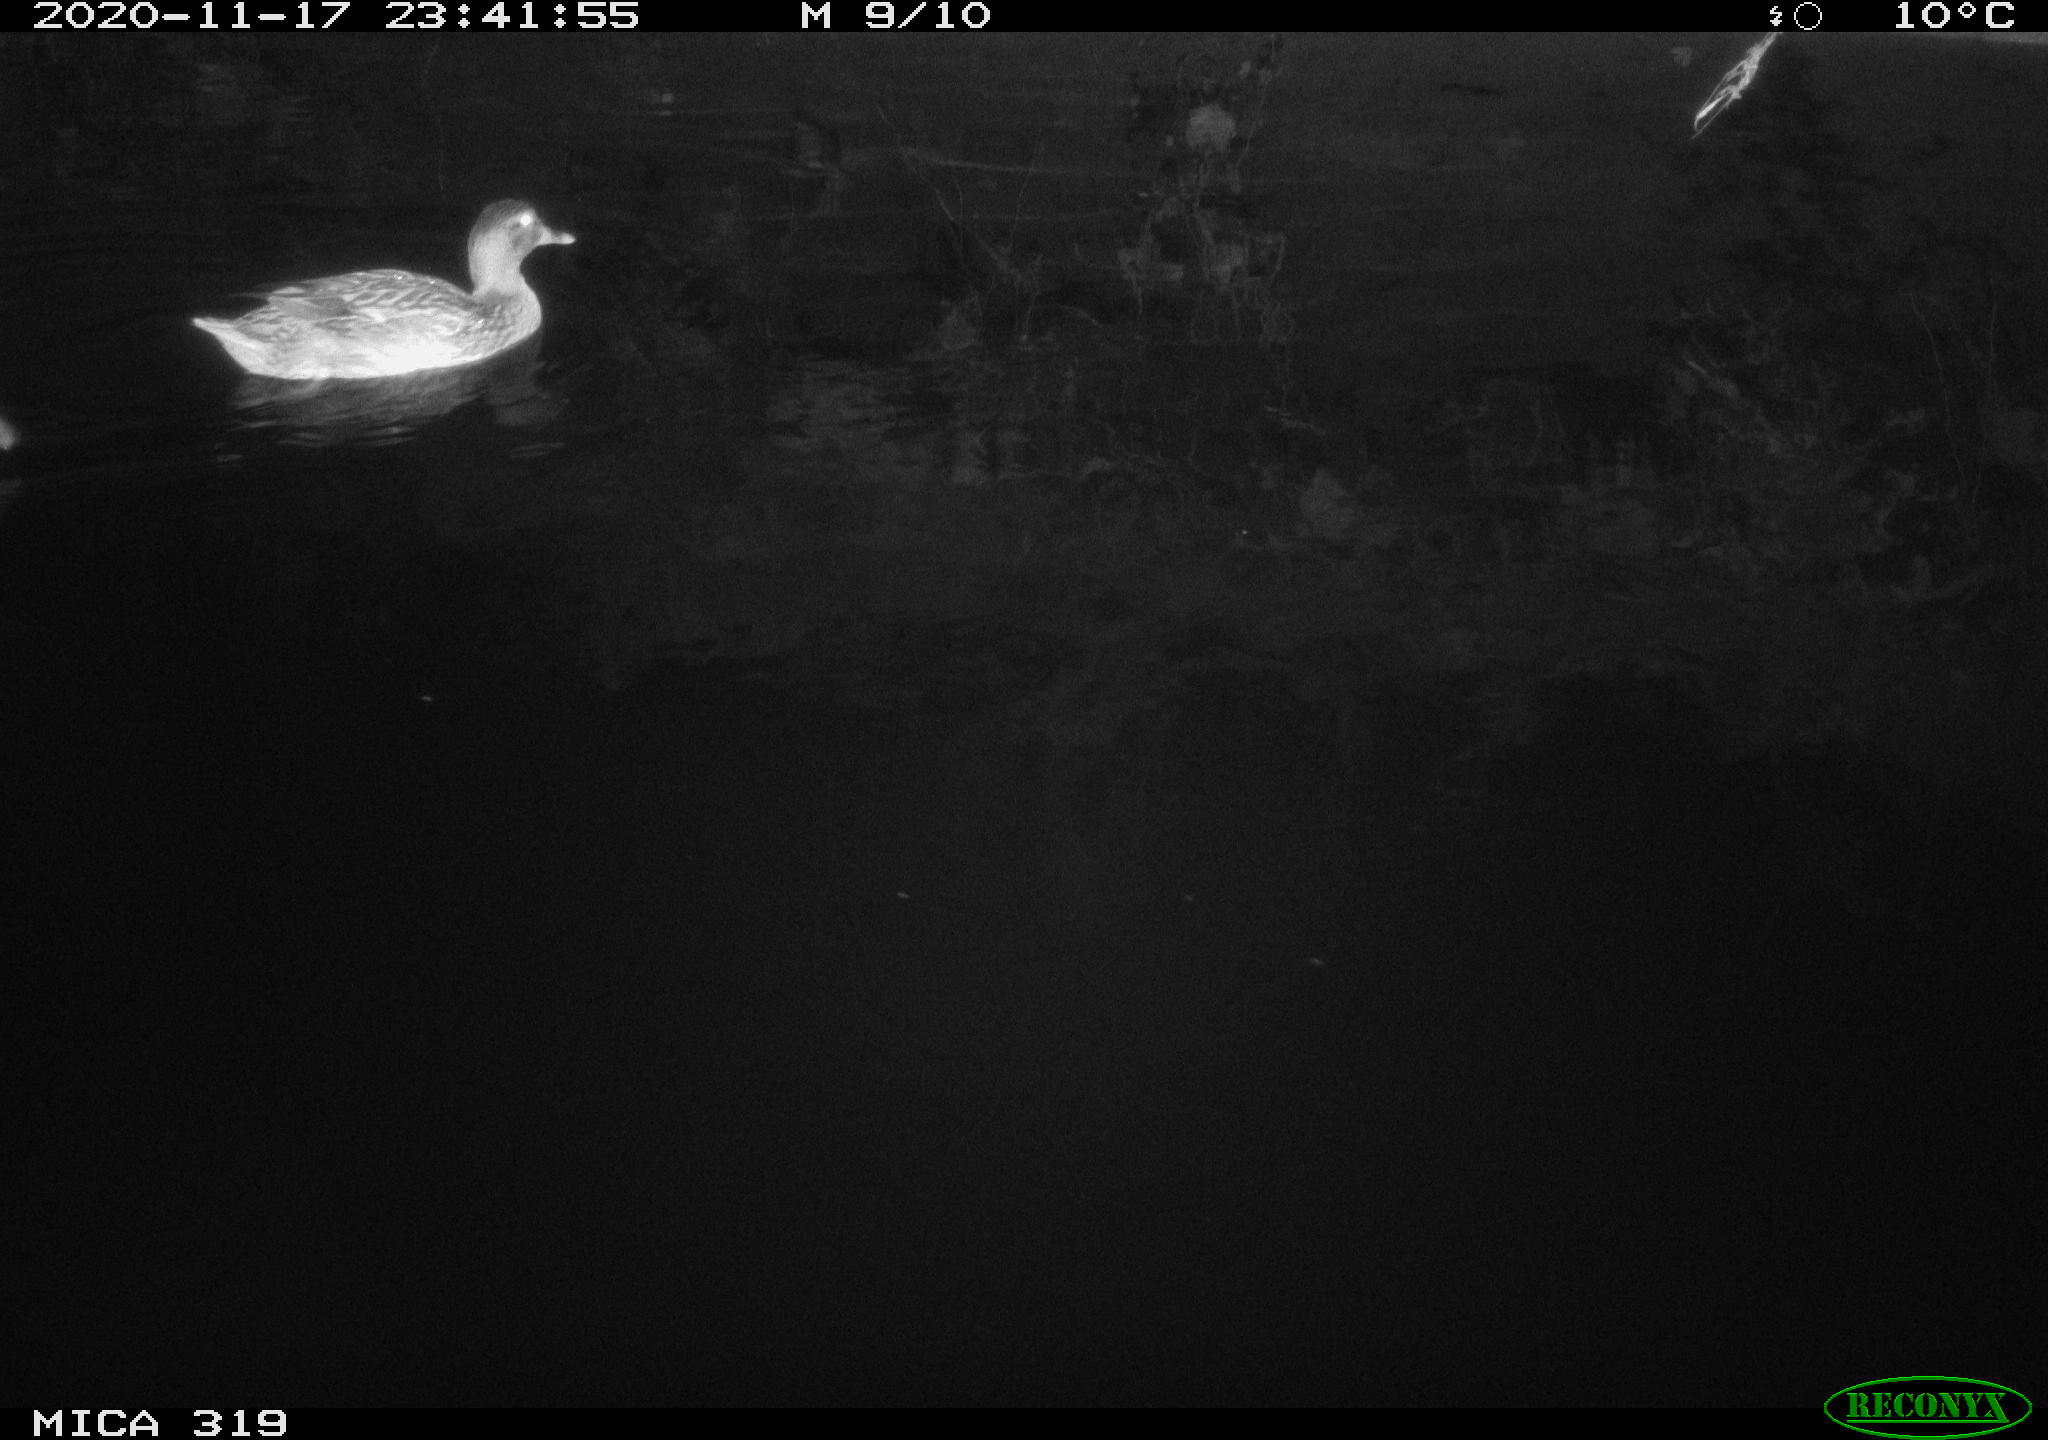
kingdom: Animalia
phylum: Chordata
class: Aves
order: Anseriformes
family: Anatidae
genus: Anas
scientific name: Anas platyrhynchos
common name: Mallard
